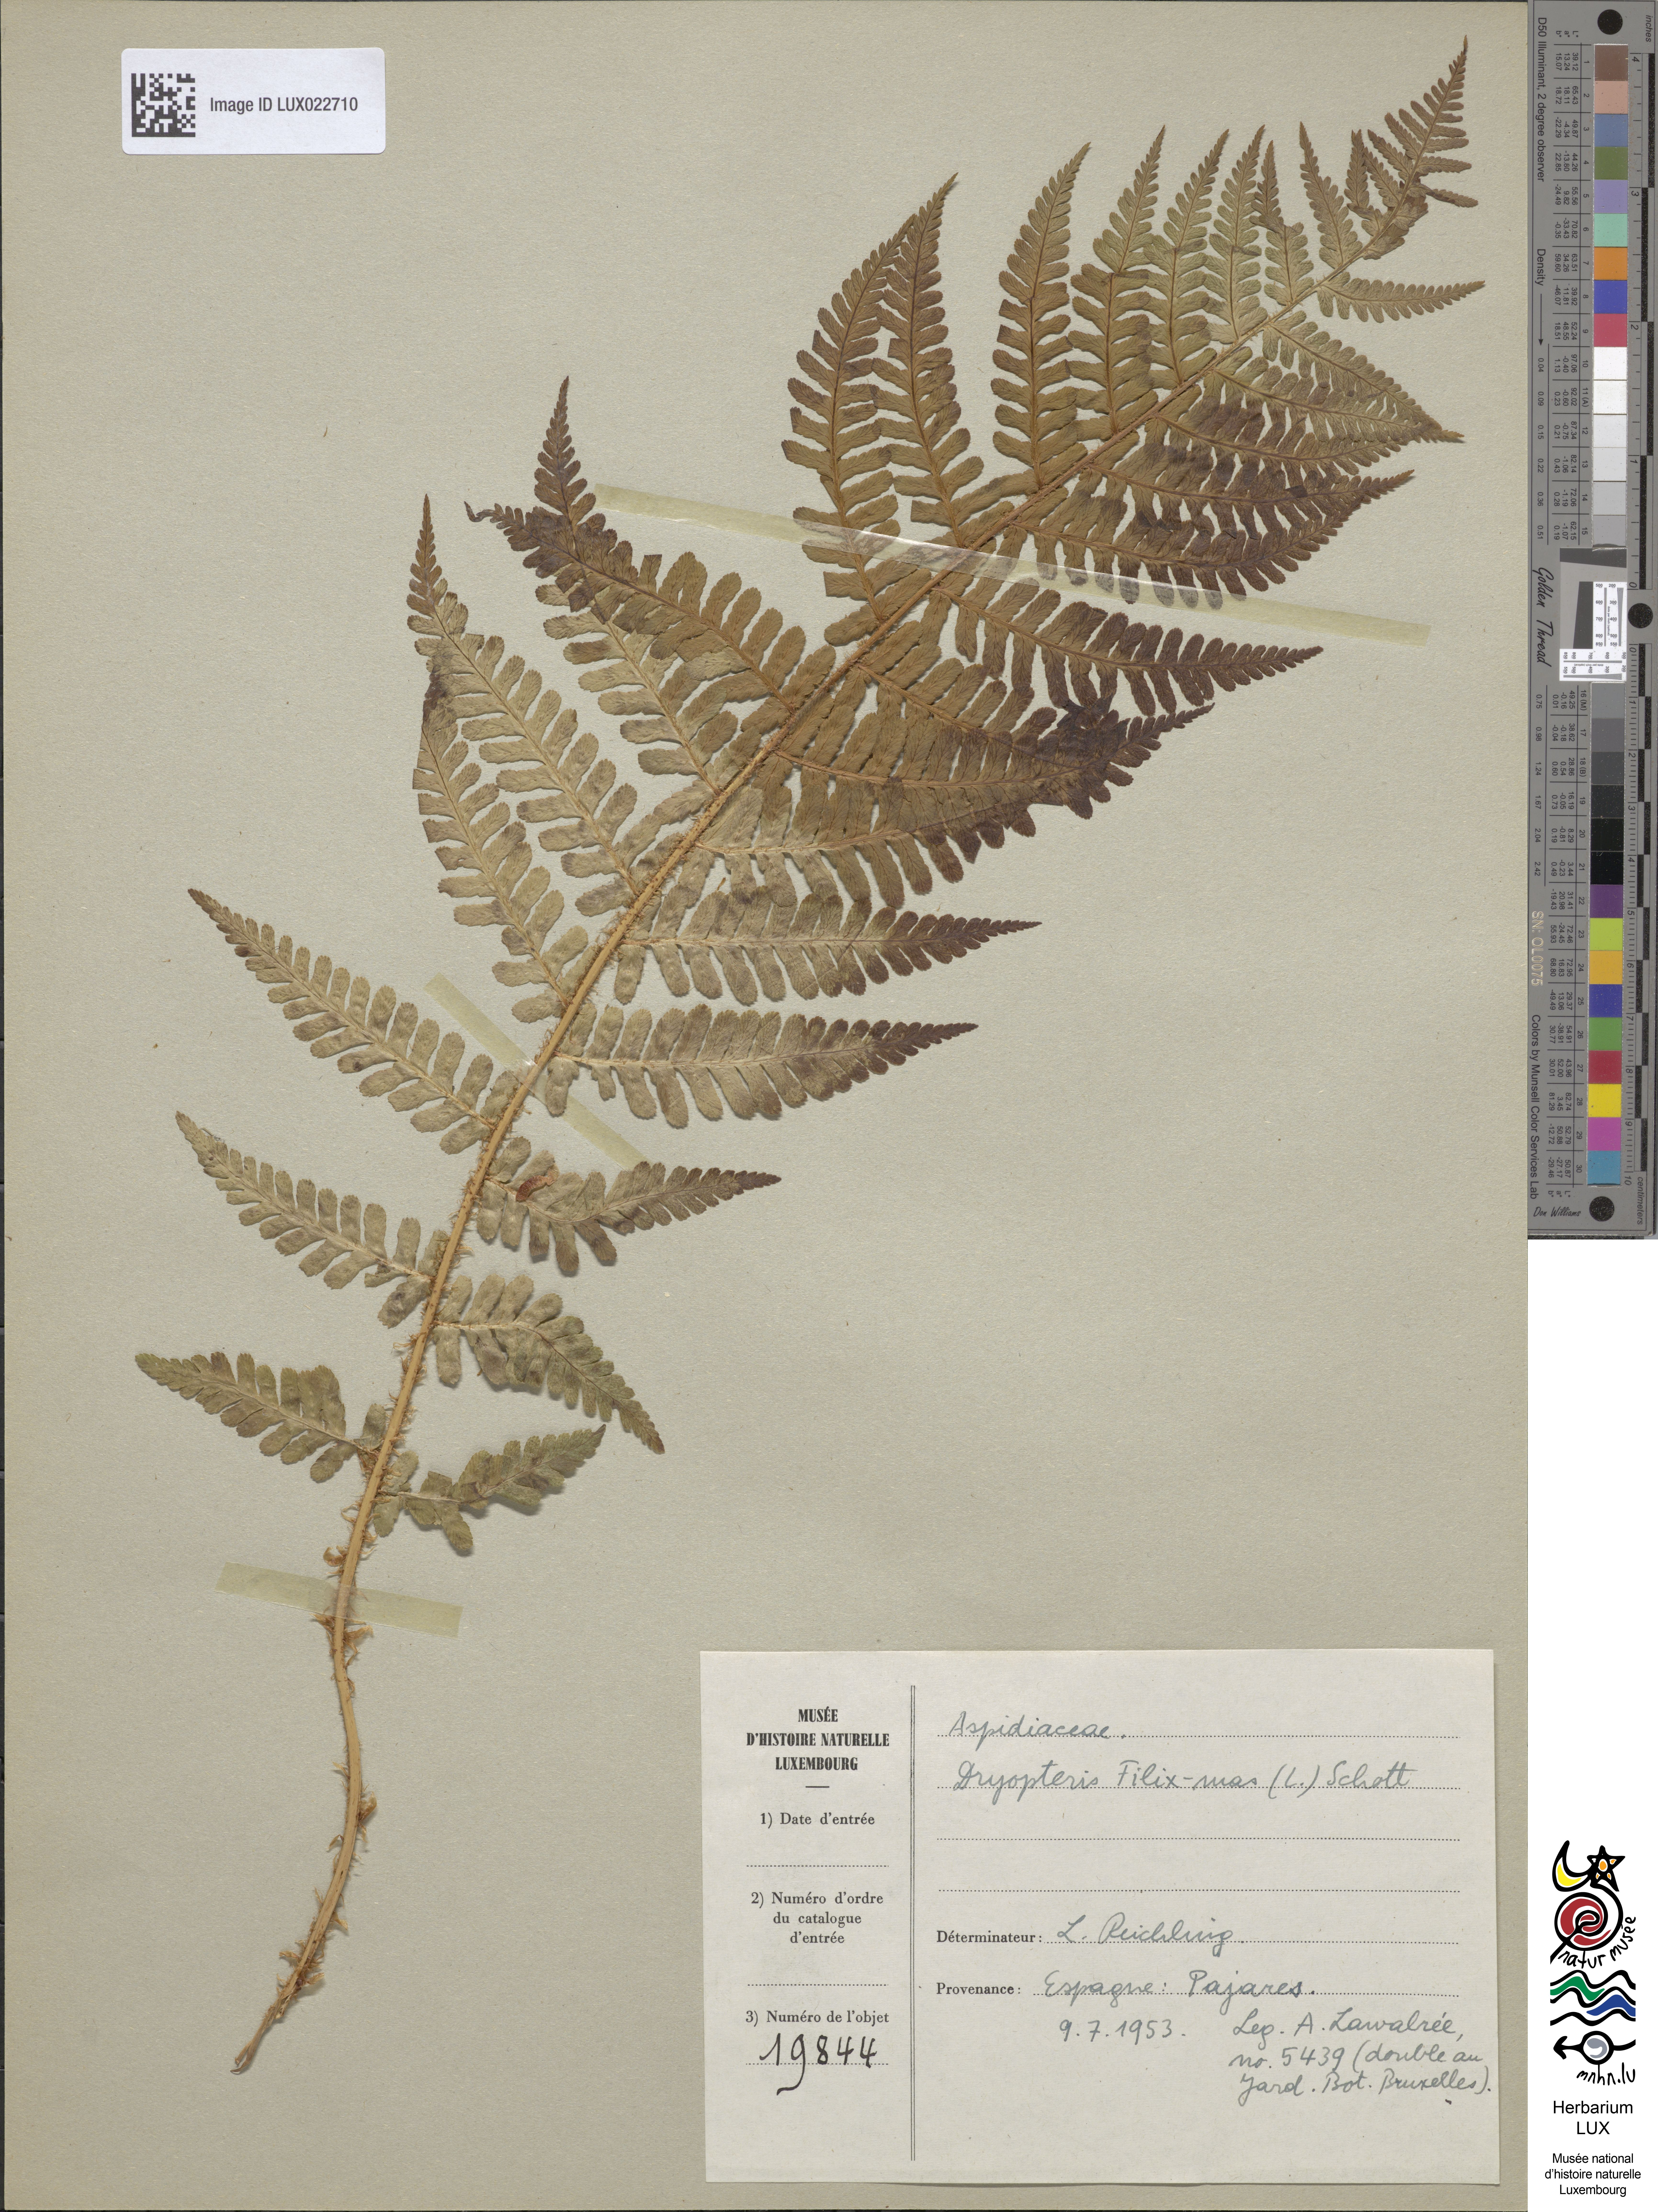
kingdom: Plantae
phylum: Tracheophyta
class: Polypodiopsida
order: Polypodiales
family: Dryopteridaceae
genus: Dryopteris
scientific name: Dryopteris filix-mas
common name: Male fern
